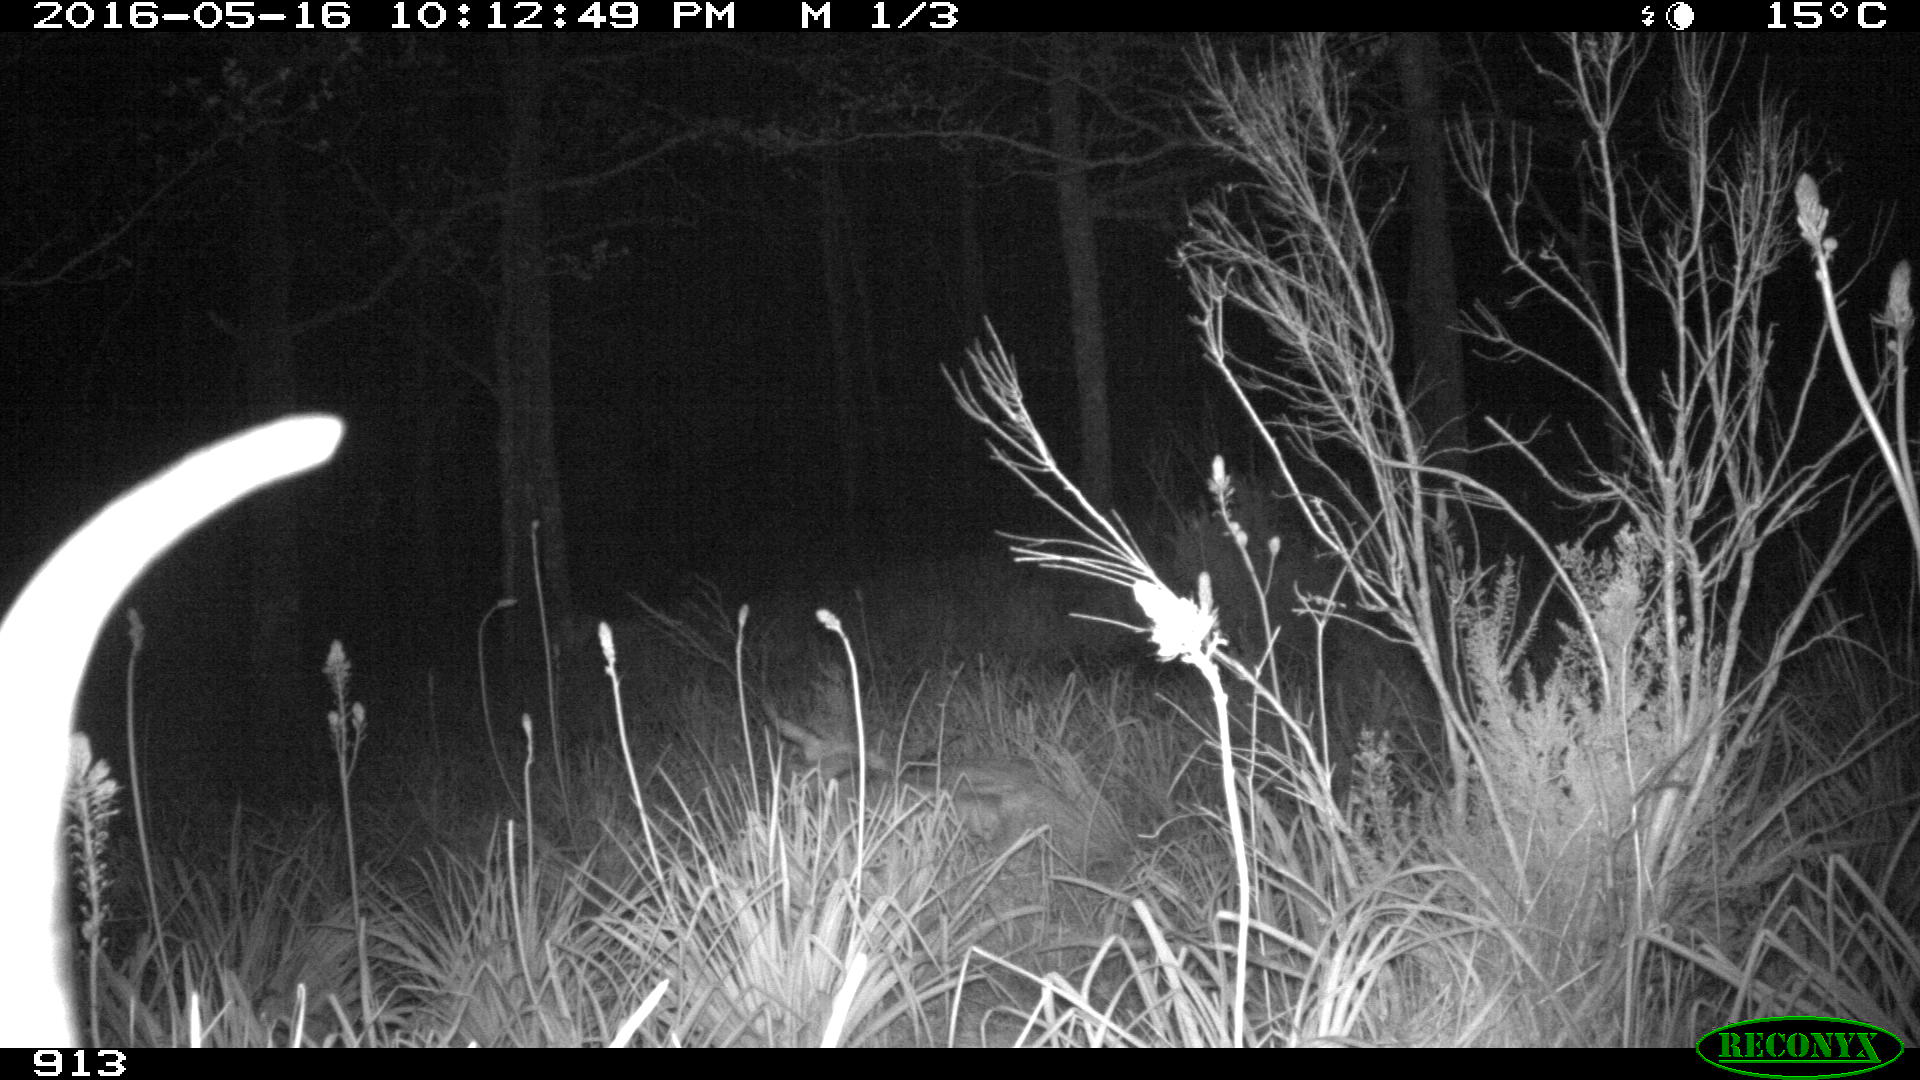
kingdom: Animalia
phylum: Chordata
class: Mammalia
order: Artiodactyla
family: Bovidae
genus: Bos
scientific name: Bos taurus
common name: Domesticated cattle
